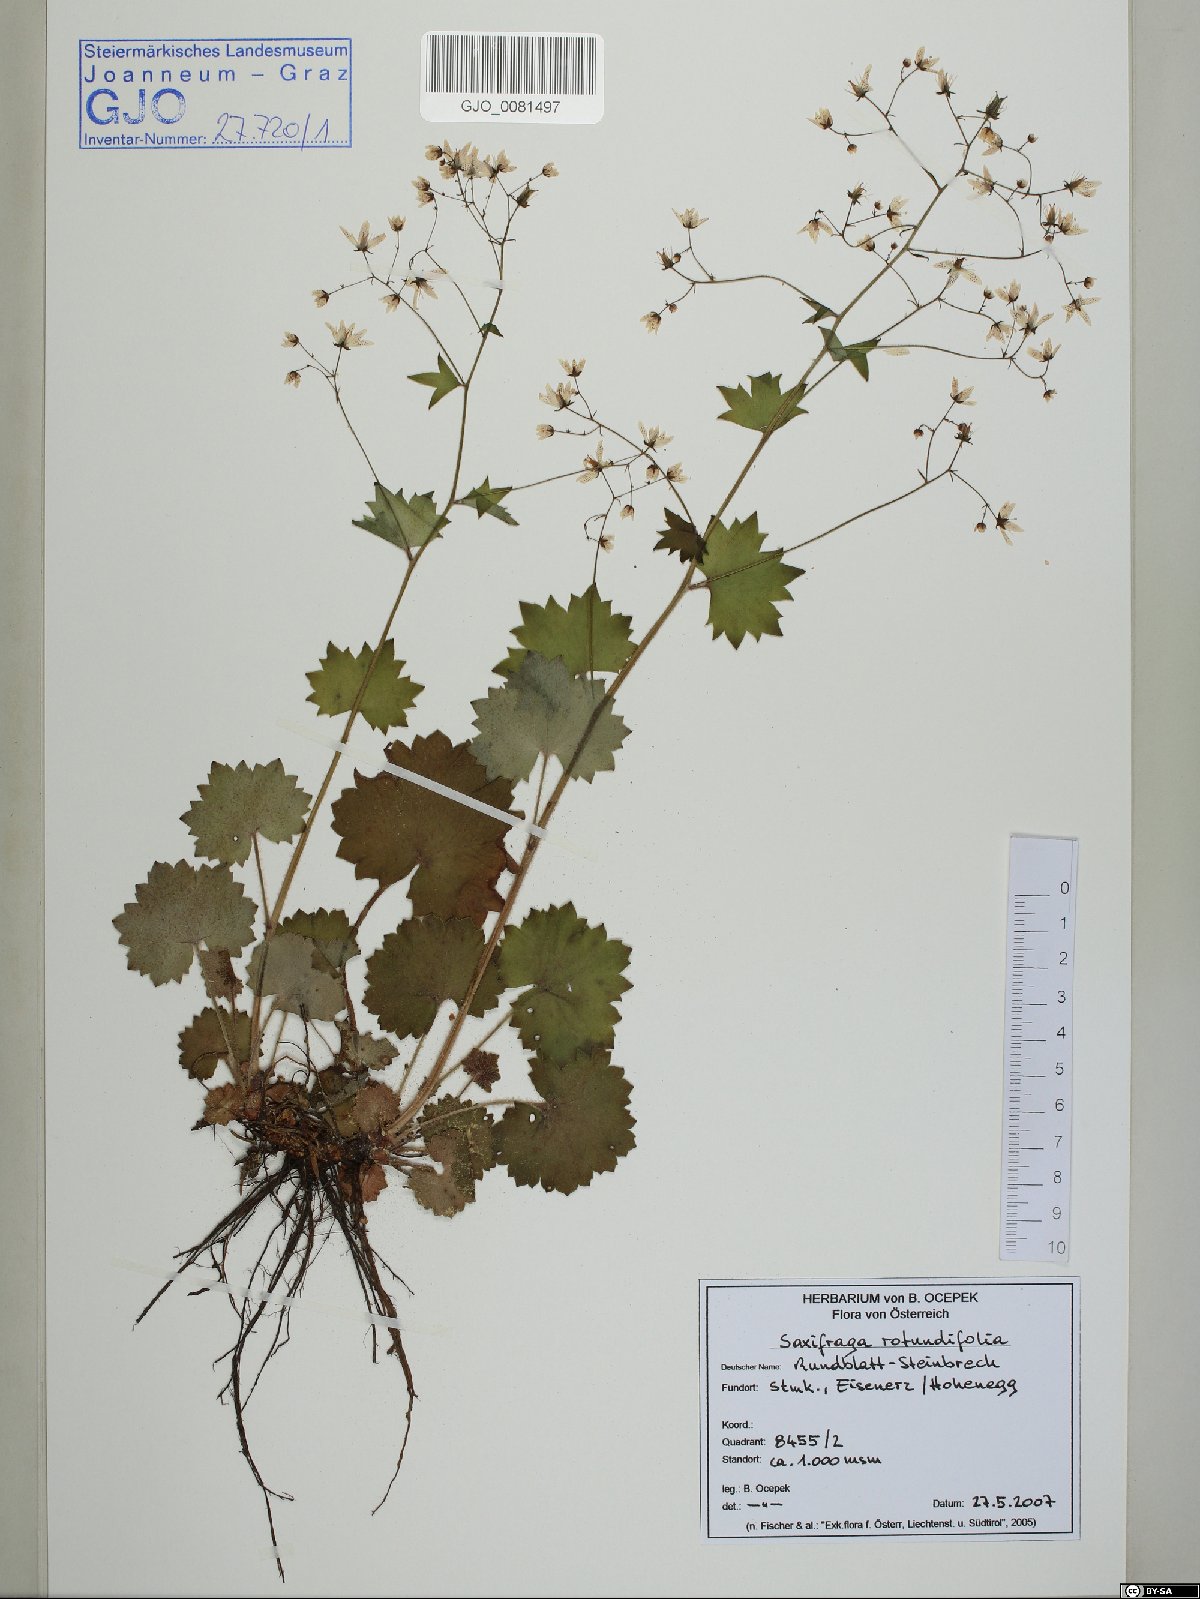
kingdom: Plantae
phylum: Tracheophyta
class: Magnoliopsida
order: Saxifragales
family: Saxifragaceae
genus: Saxifraga
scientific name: Saxifraga rotundifolia
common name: Round-leaved saxifrage
